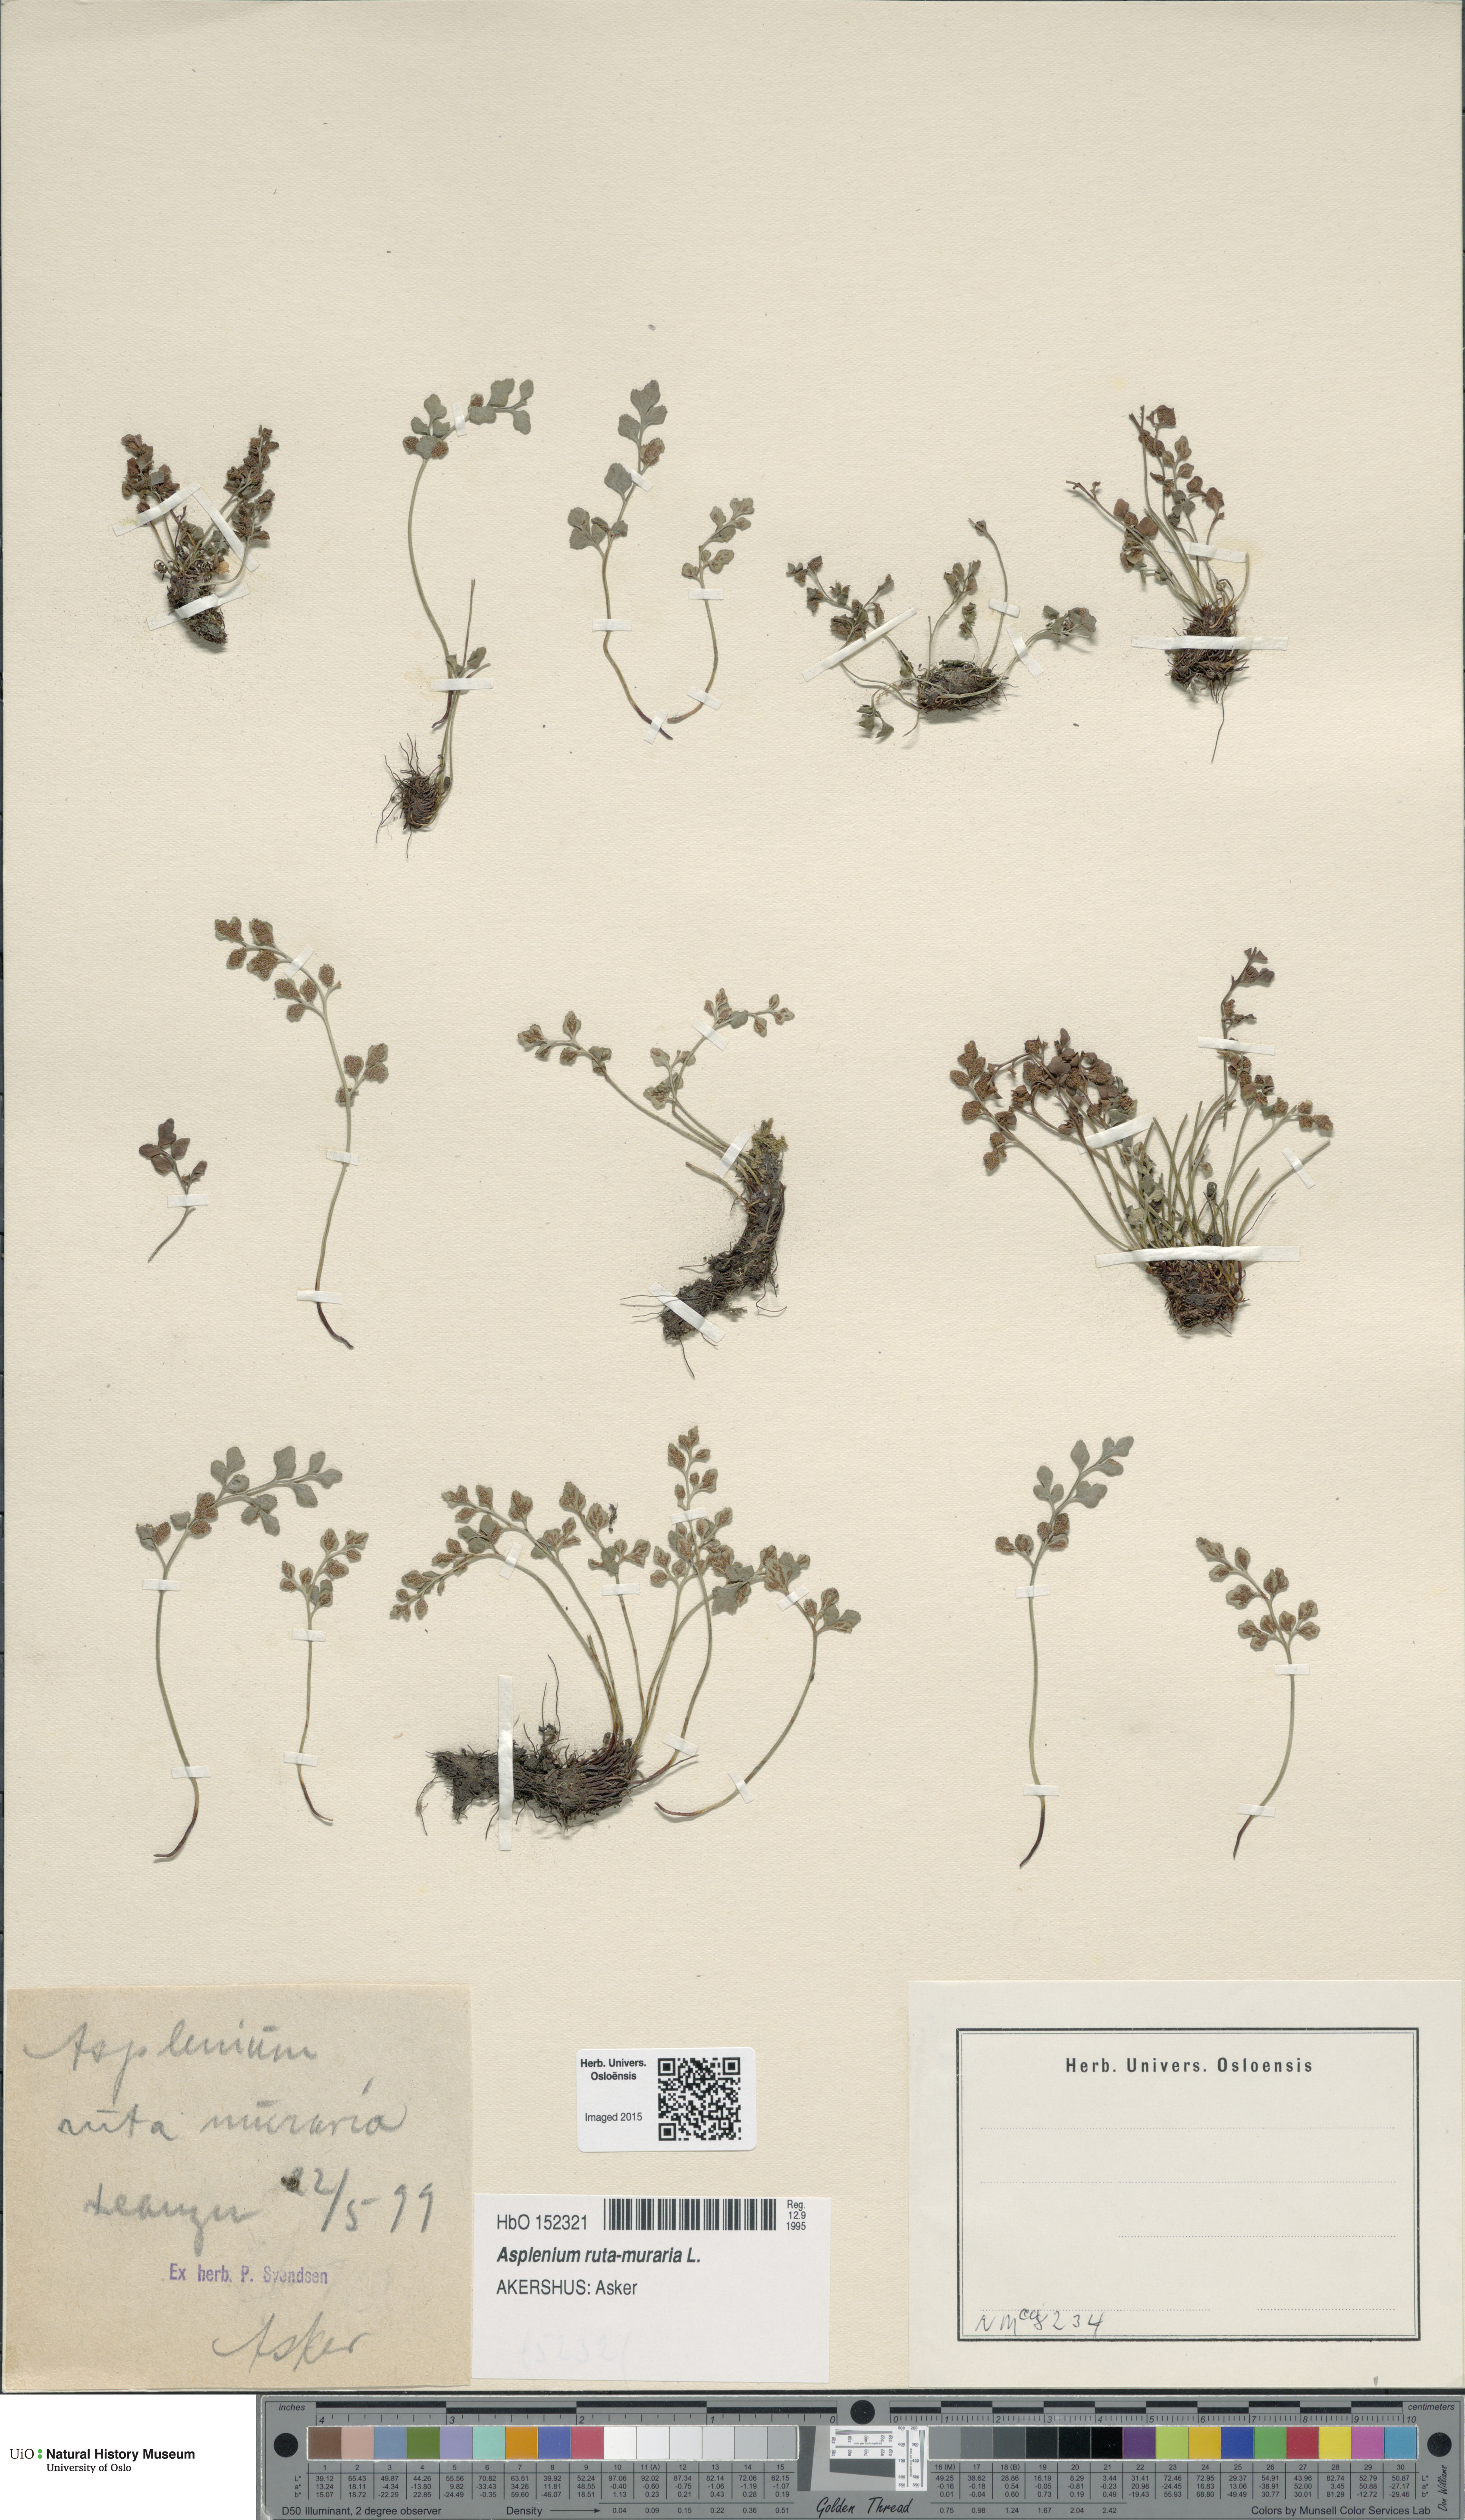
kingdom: Plantae
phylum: Tracheophyta
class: Polypodiopsida
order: Polypodiales
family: Aspleniaceae
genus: Asplenium
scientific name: Asplenium ruta-muraria
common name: Wall-rue
